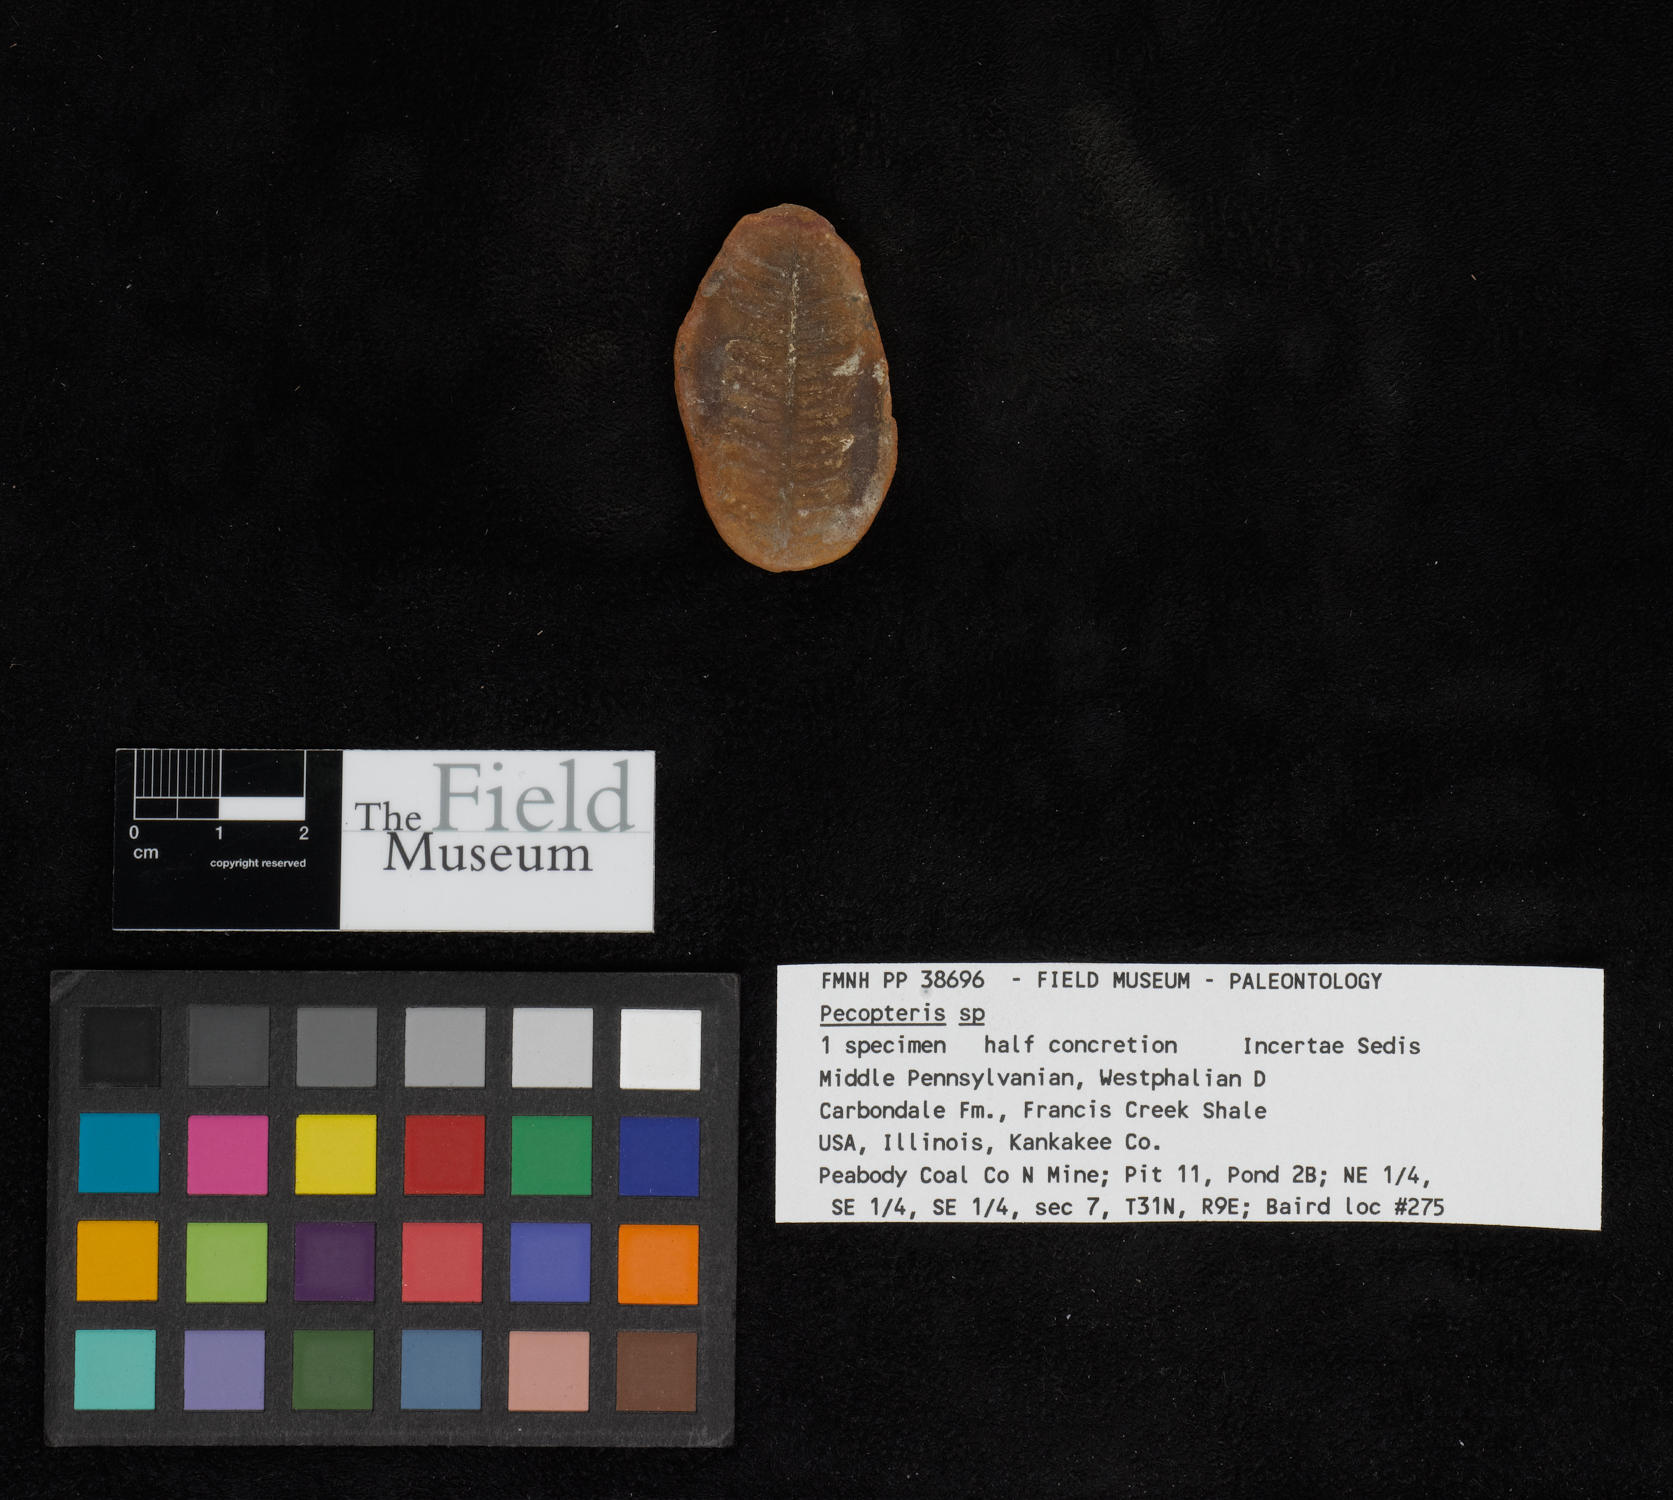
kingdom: Plantae
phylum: Tracheophyta
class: Polypodiopsida
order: Marattiales
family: Asterothecaceae
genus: Pecopteris
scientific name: Pecopteris
